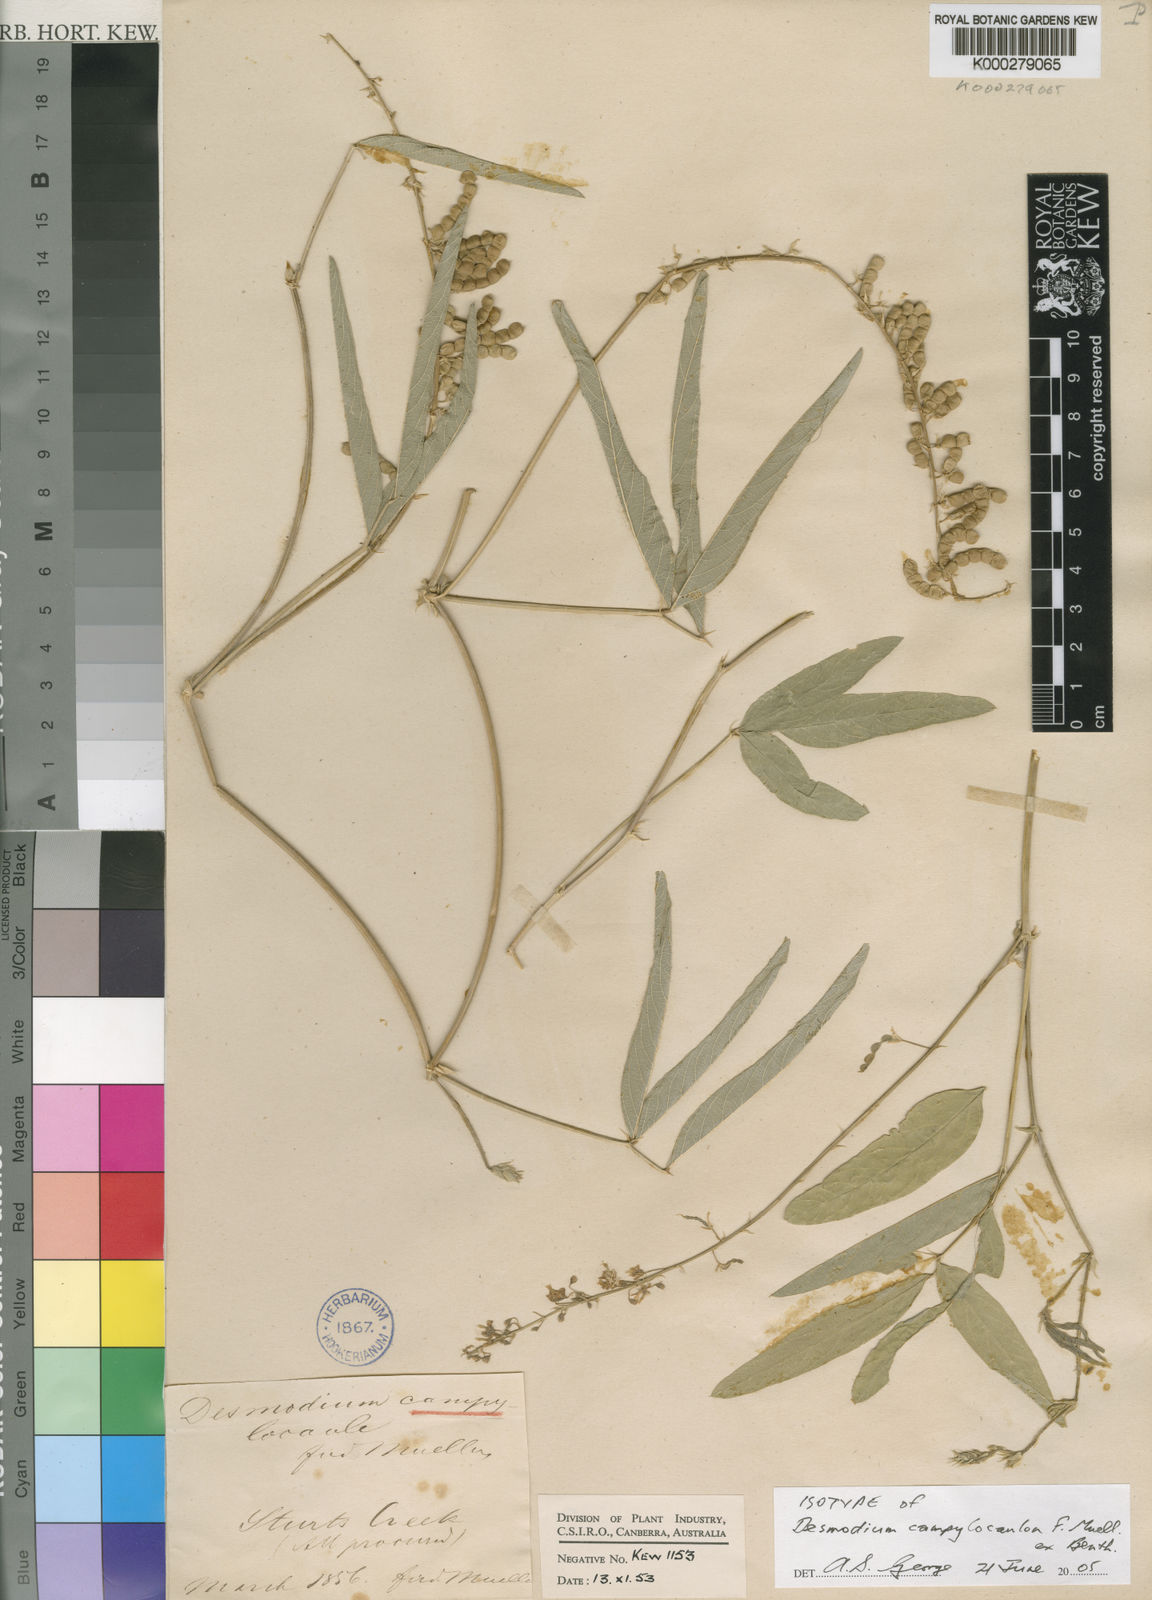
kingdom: Plantae
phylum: Tracheophyta
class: Magnoliopsida
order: Fabales
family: Fabaceae
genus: Desmodiopsis
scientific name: Desmodiopsis camplyocaulon
